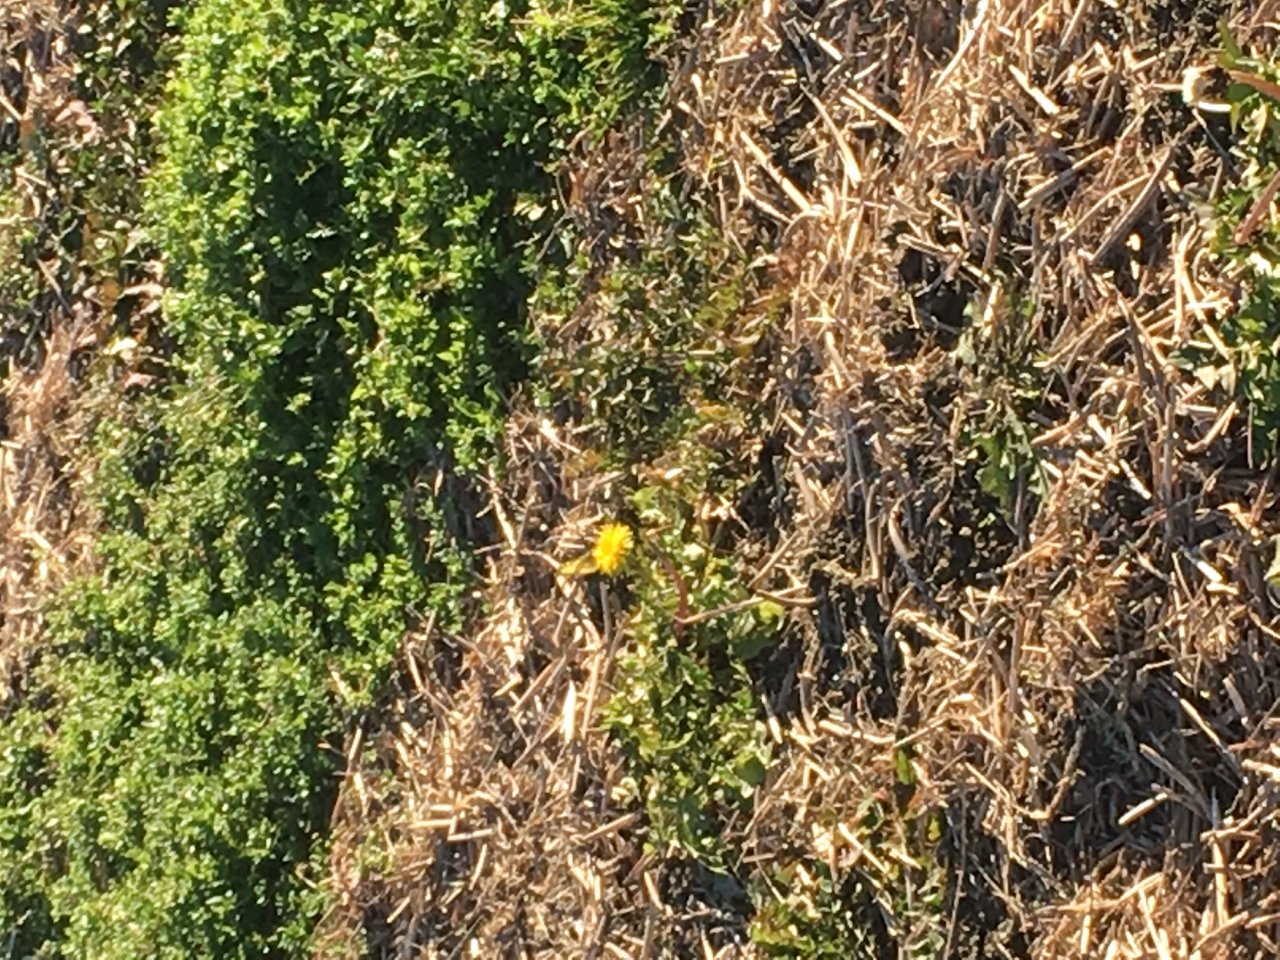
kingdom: Animalia
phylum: Arthropoda
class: Insecta
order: Lepidoptera
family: Pieridae
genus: Colias
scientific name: Colias philodice
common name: Clouded Sulphur
